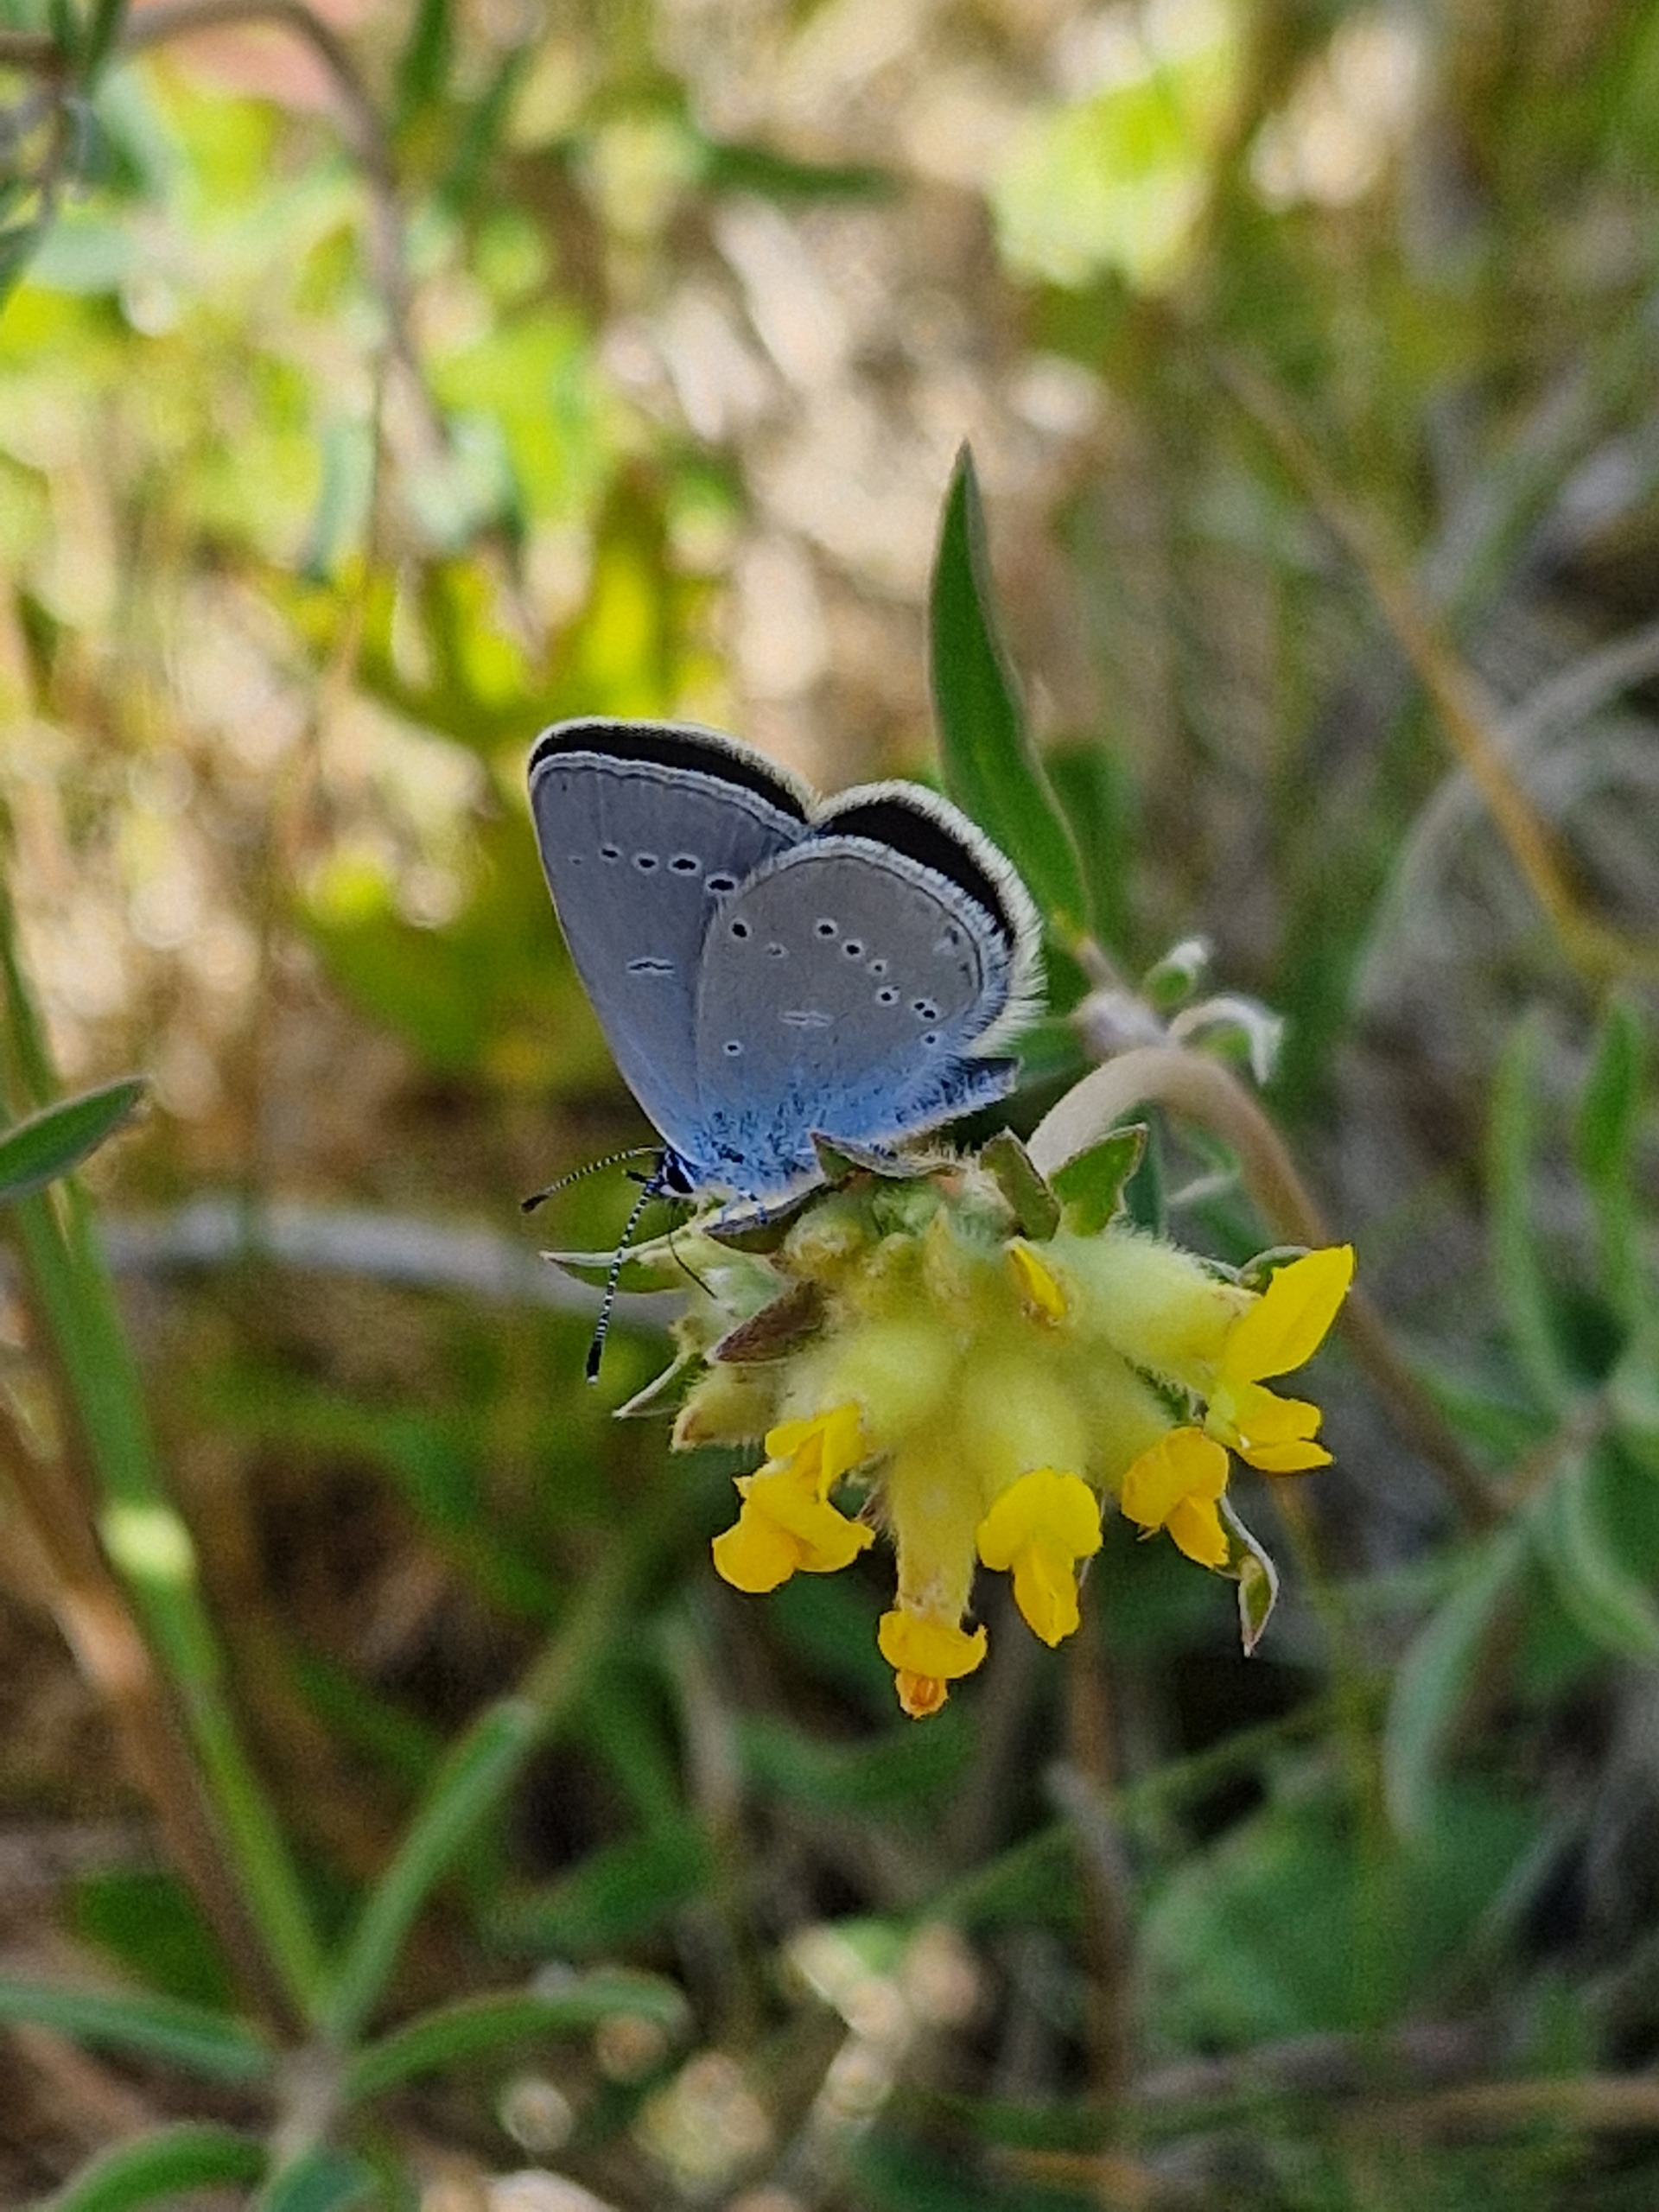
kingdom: Animalia
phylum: Arthropoda
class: Insecta
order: Lepidoptera
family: Lycaenidae
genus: Cupido
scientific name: Cupido minimus
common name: Dværgblåfugl
